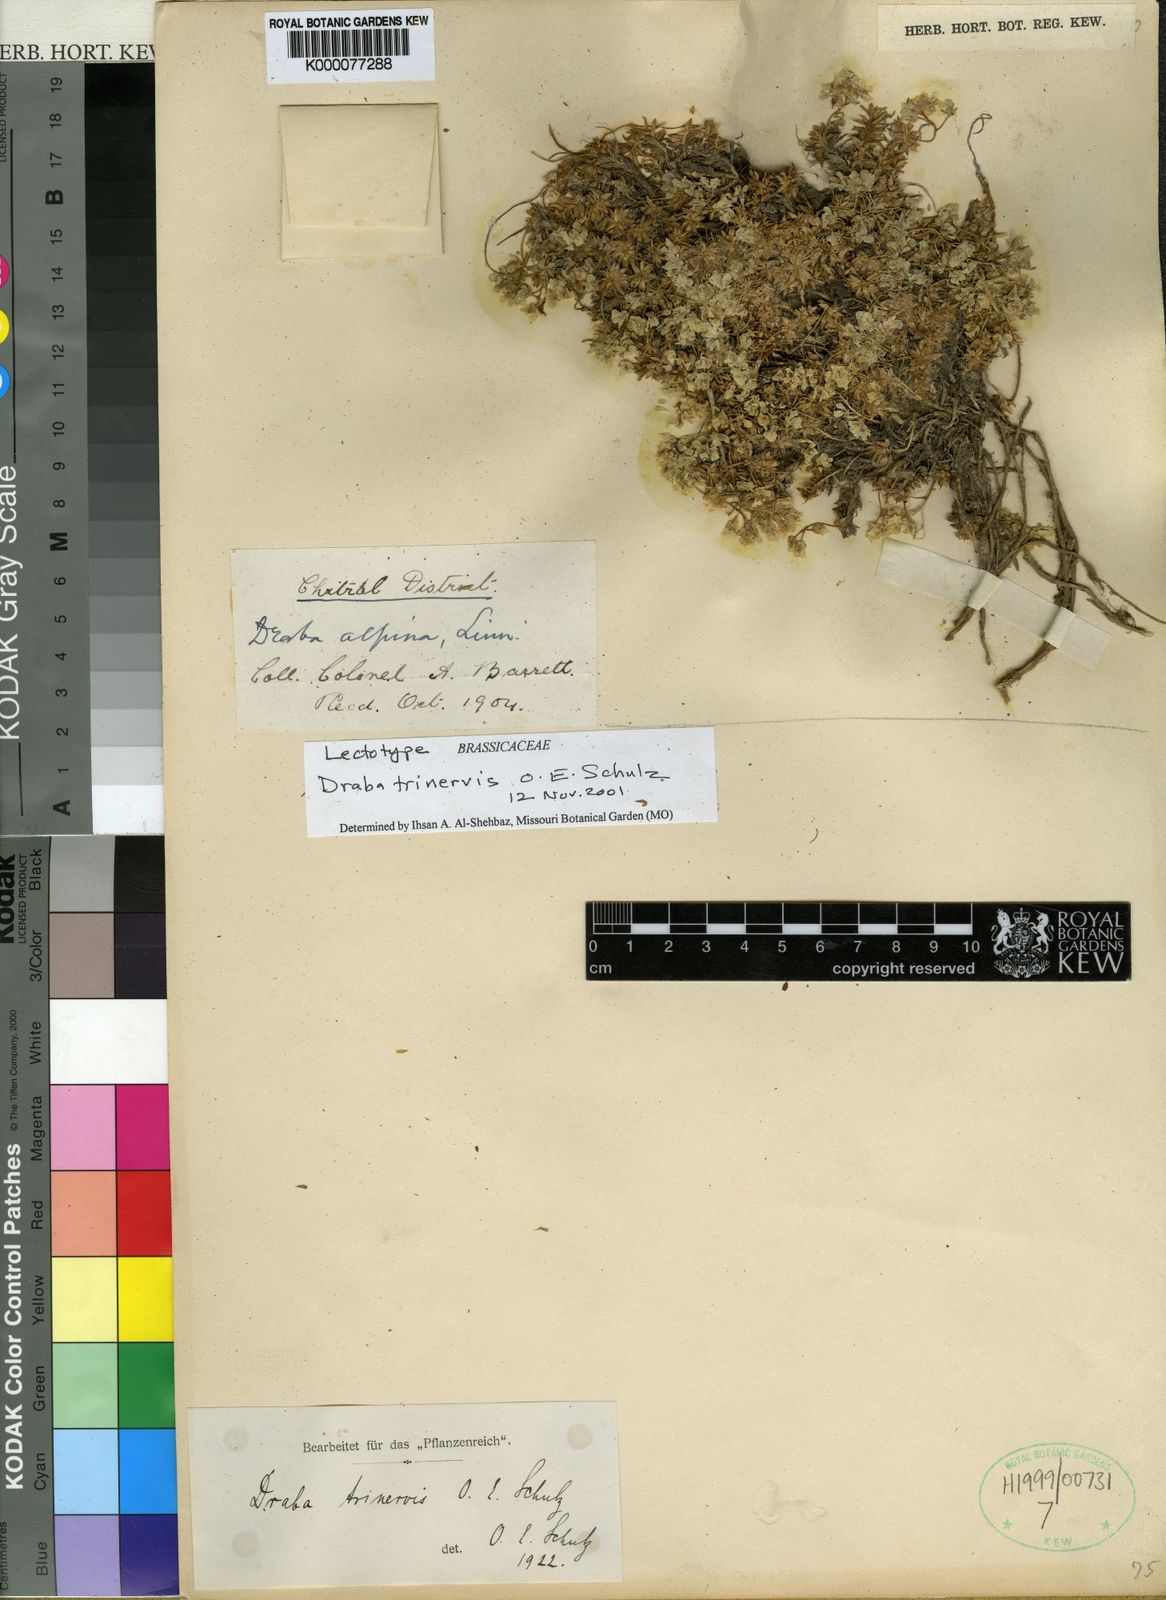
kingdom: Plantae
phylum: Tracheophyta
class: Magnoliopsida
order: Brassicales
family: Brassicaceae
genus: Draba
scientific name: Draba trinervis
